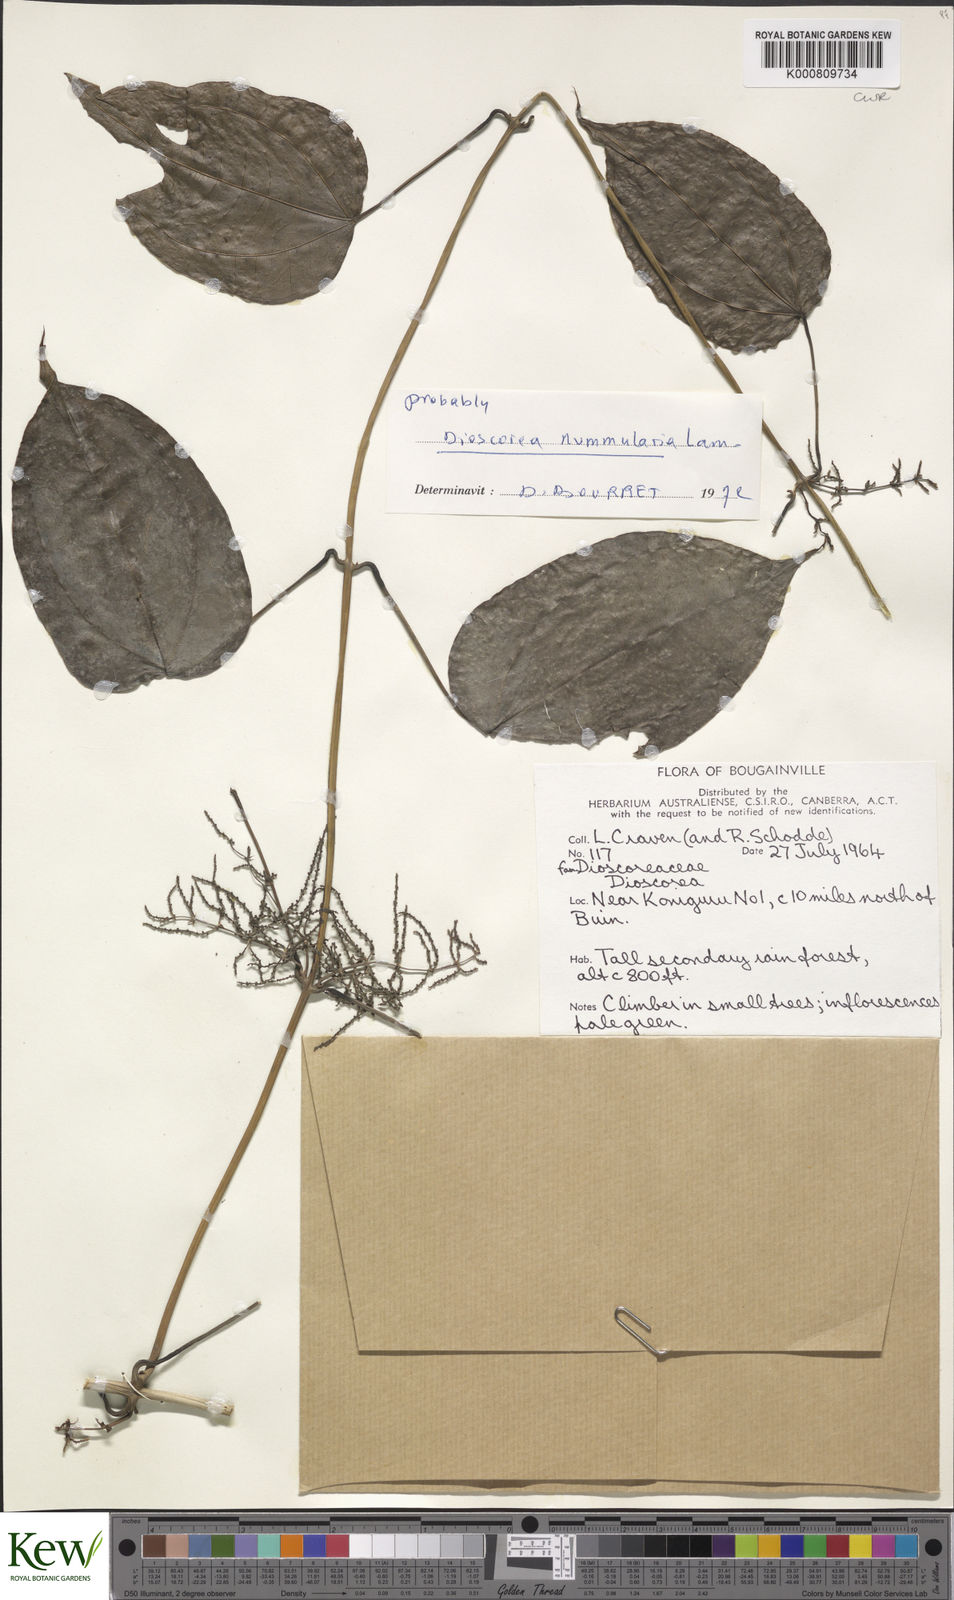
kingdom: Plantae
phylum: Tracheophyta
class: Liliopsida
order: Dioscoreales
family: Dioscoreaceae
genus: Dioscorea
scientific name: Dioscorea nummularia
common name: Pacific yam
